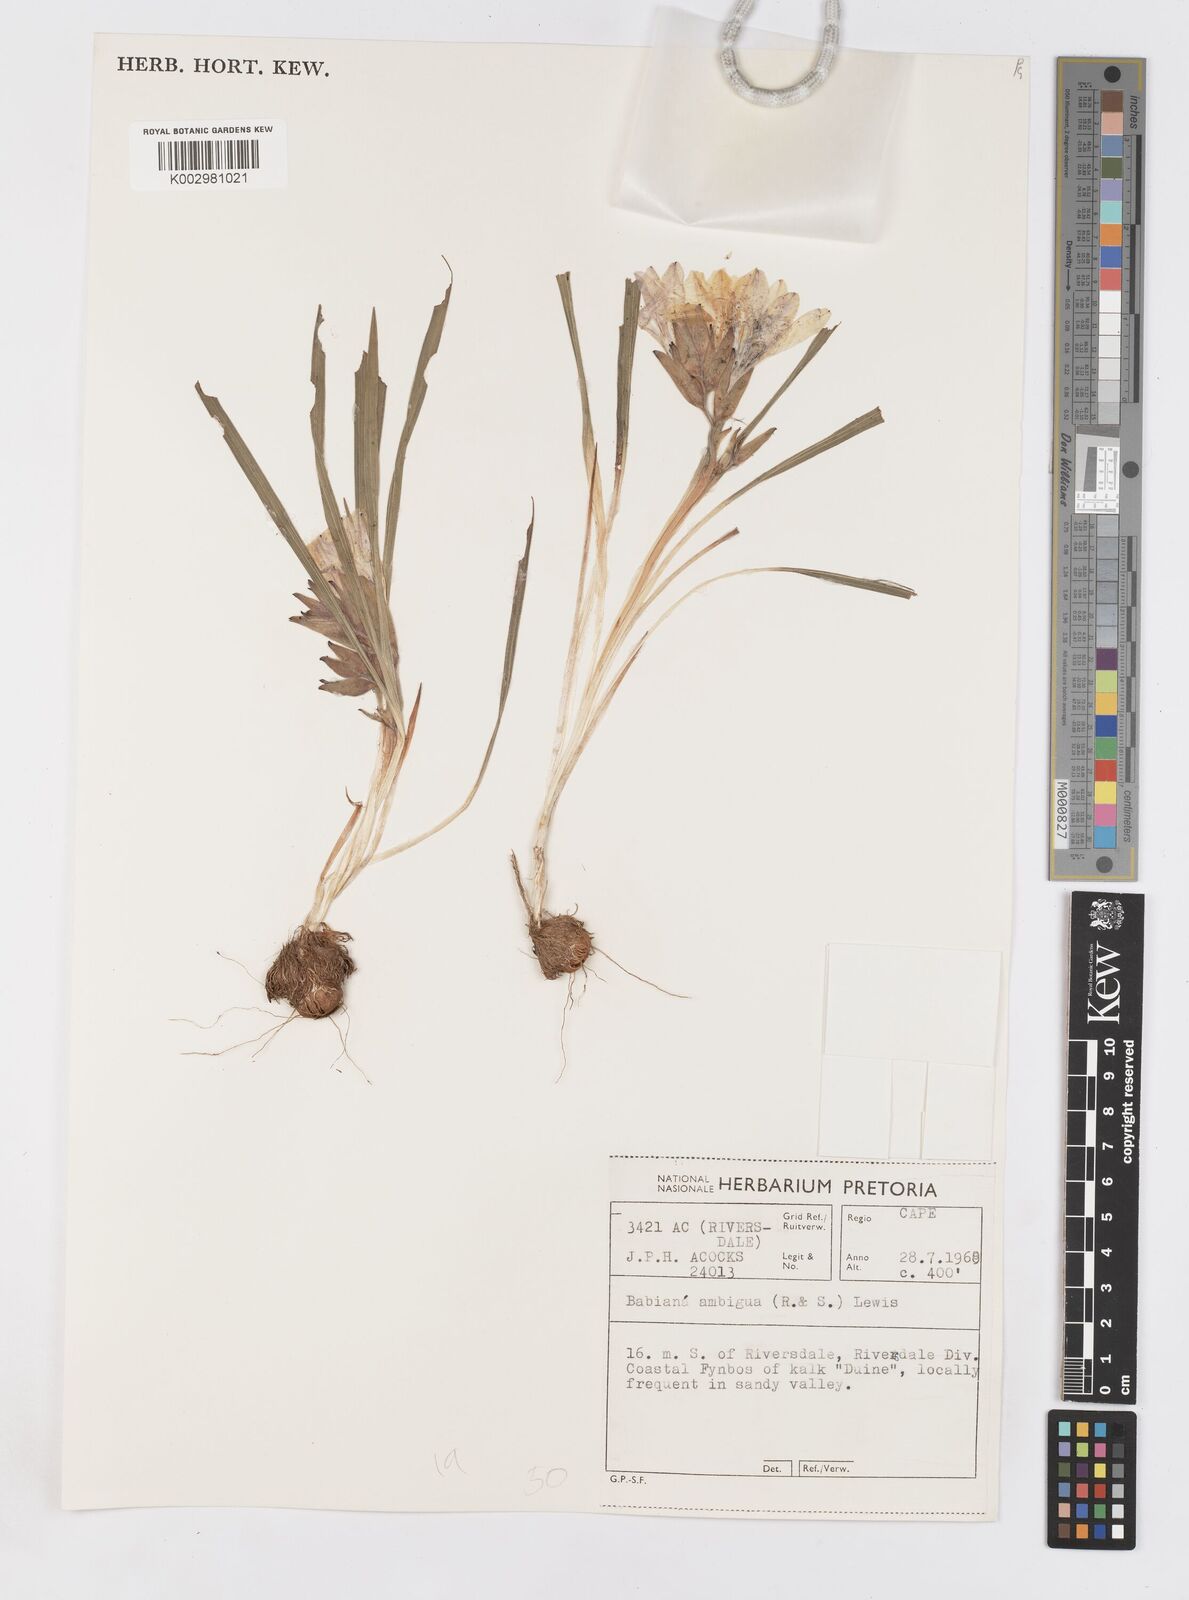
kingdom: Plantae
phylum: Tracheophyta
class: Liliopsida
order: Asparagales
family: Iridaceae
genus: Babiana
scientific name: Babiana ambigua
